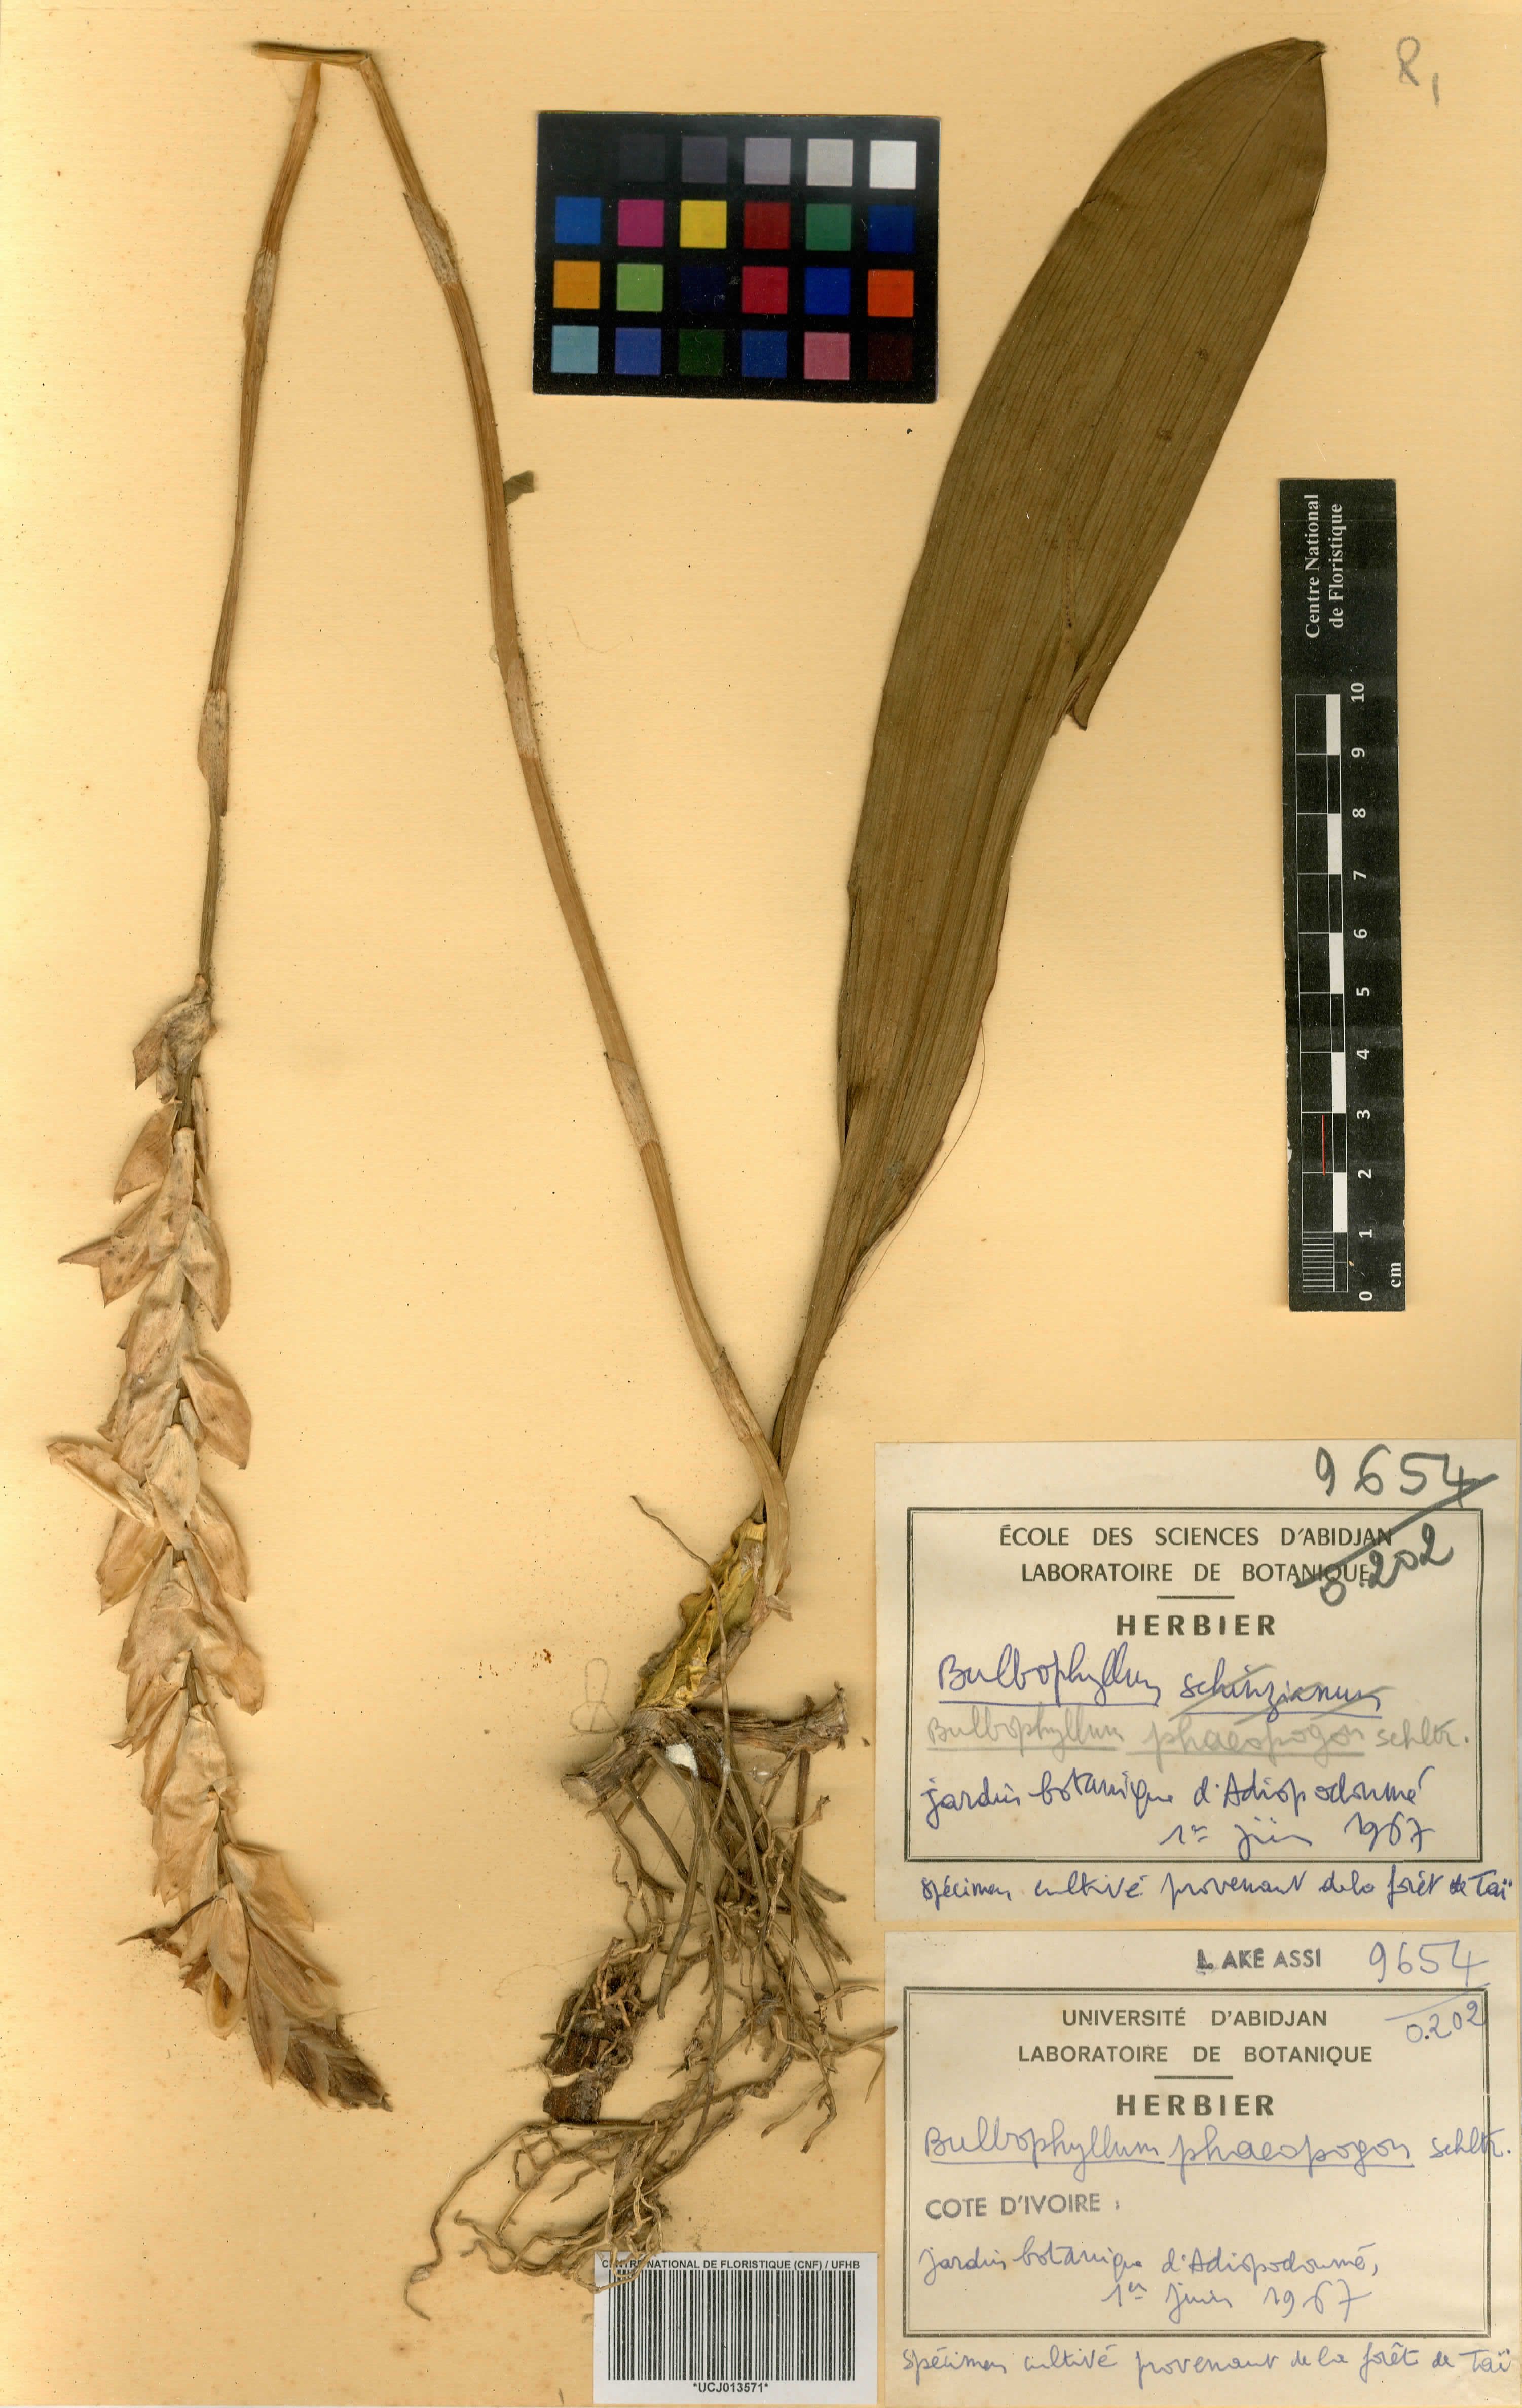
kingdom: Plantae
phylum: Tracheophyta
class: Liliopsida
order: Asparagales
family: Orchidaceae
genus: Bulbophyllum
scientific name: Bulbophyllum schinzianum
